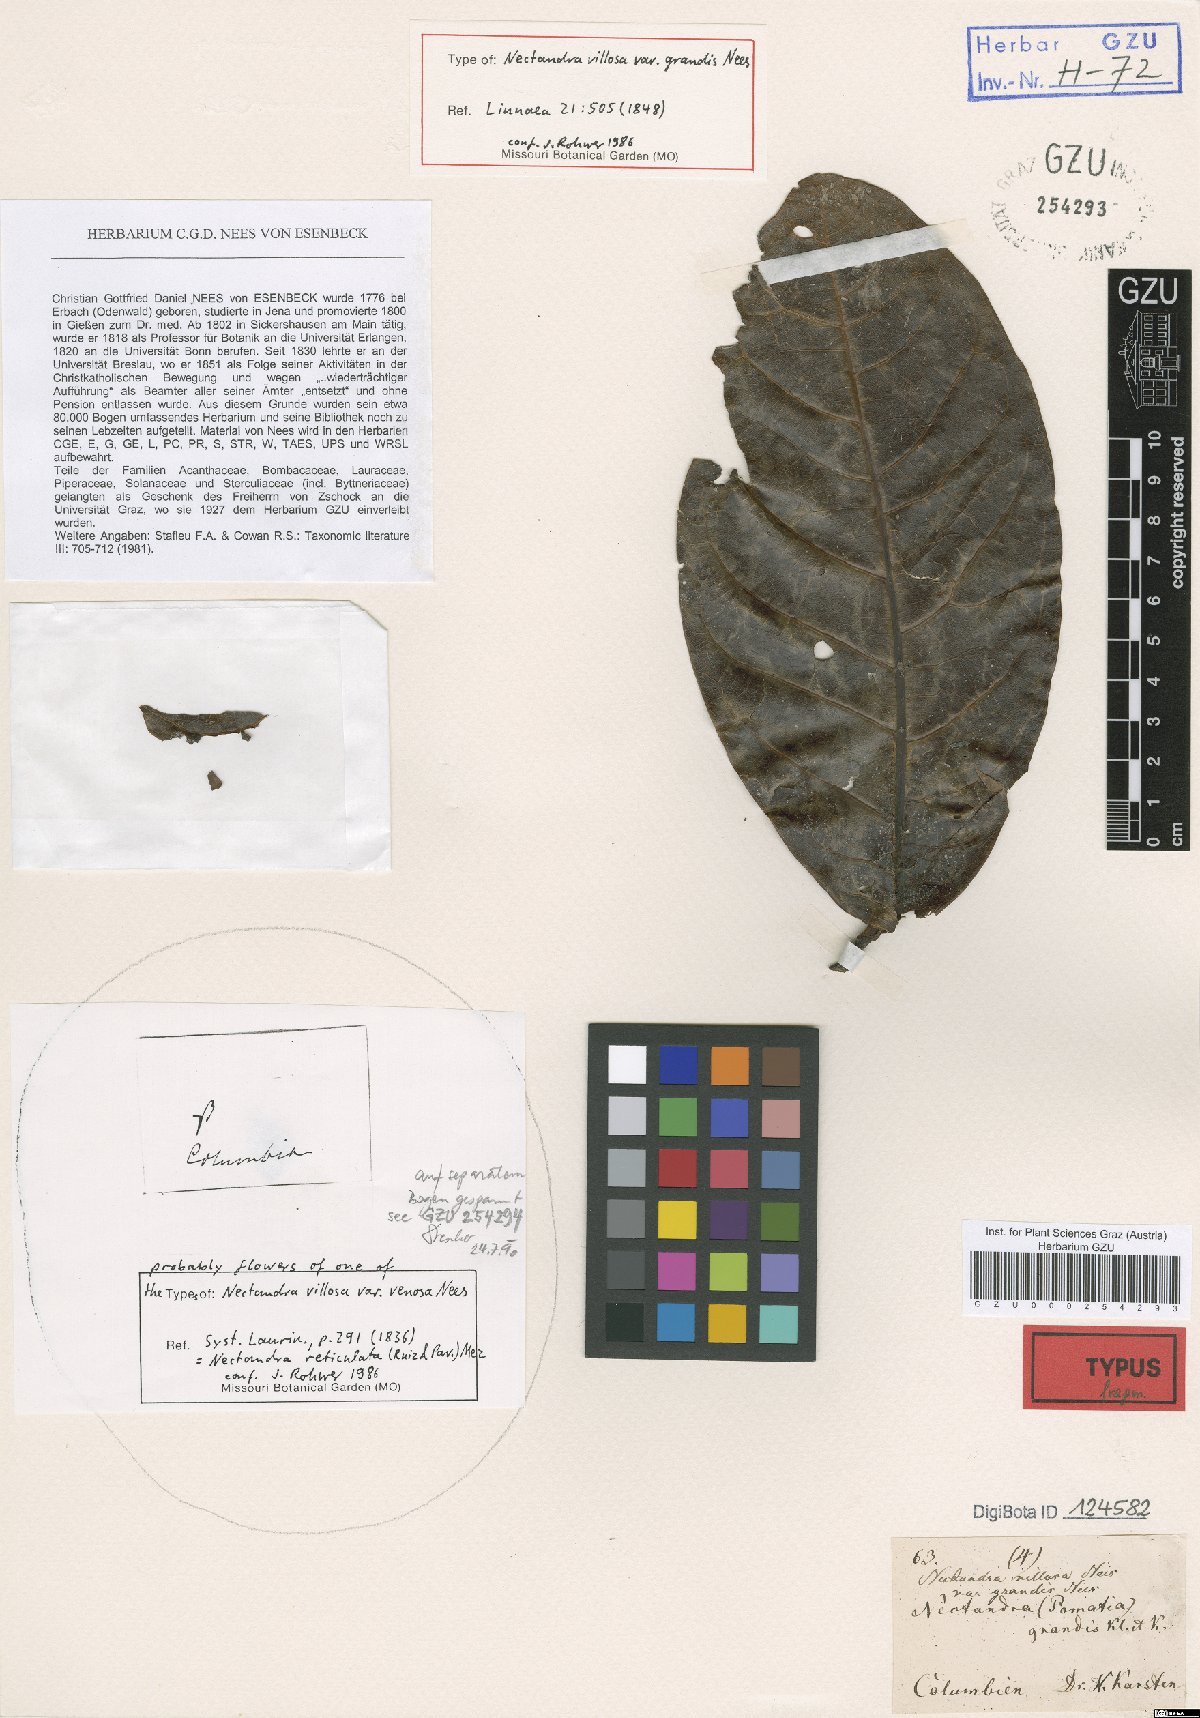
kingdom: Plantae
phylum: Tracheophyta
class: Magnoliopsida
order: Laurales
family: Lauraceae
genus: Ocotea
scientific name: Ocotea auriculata
